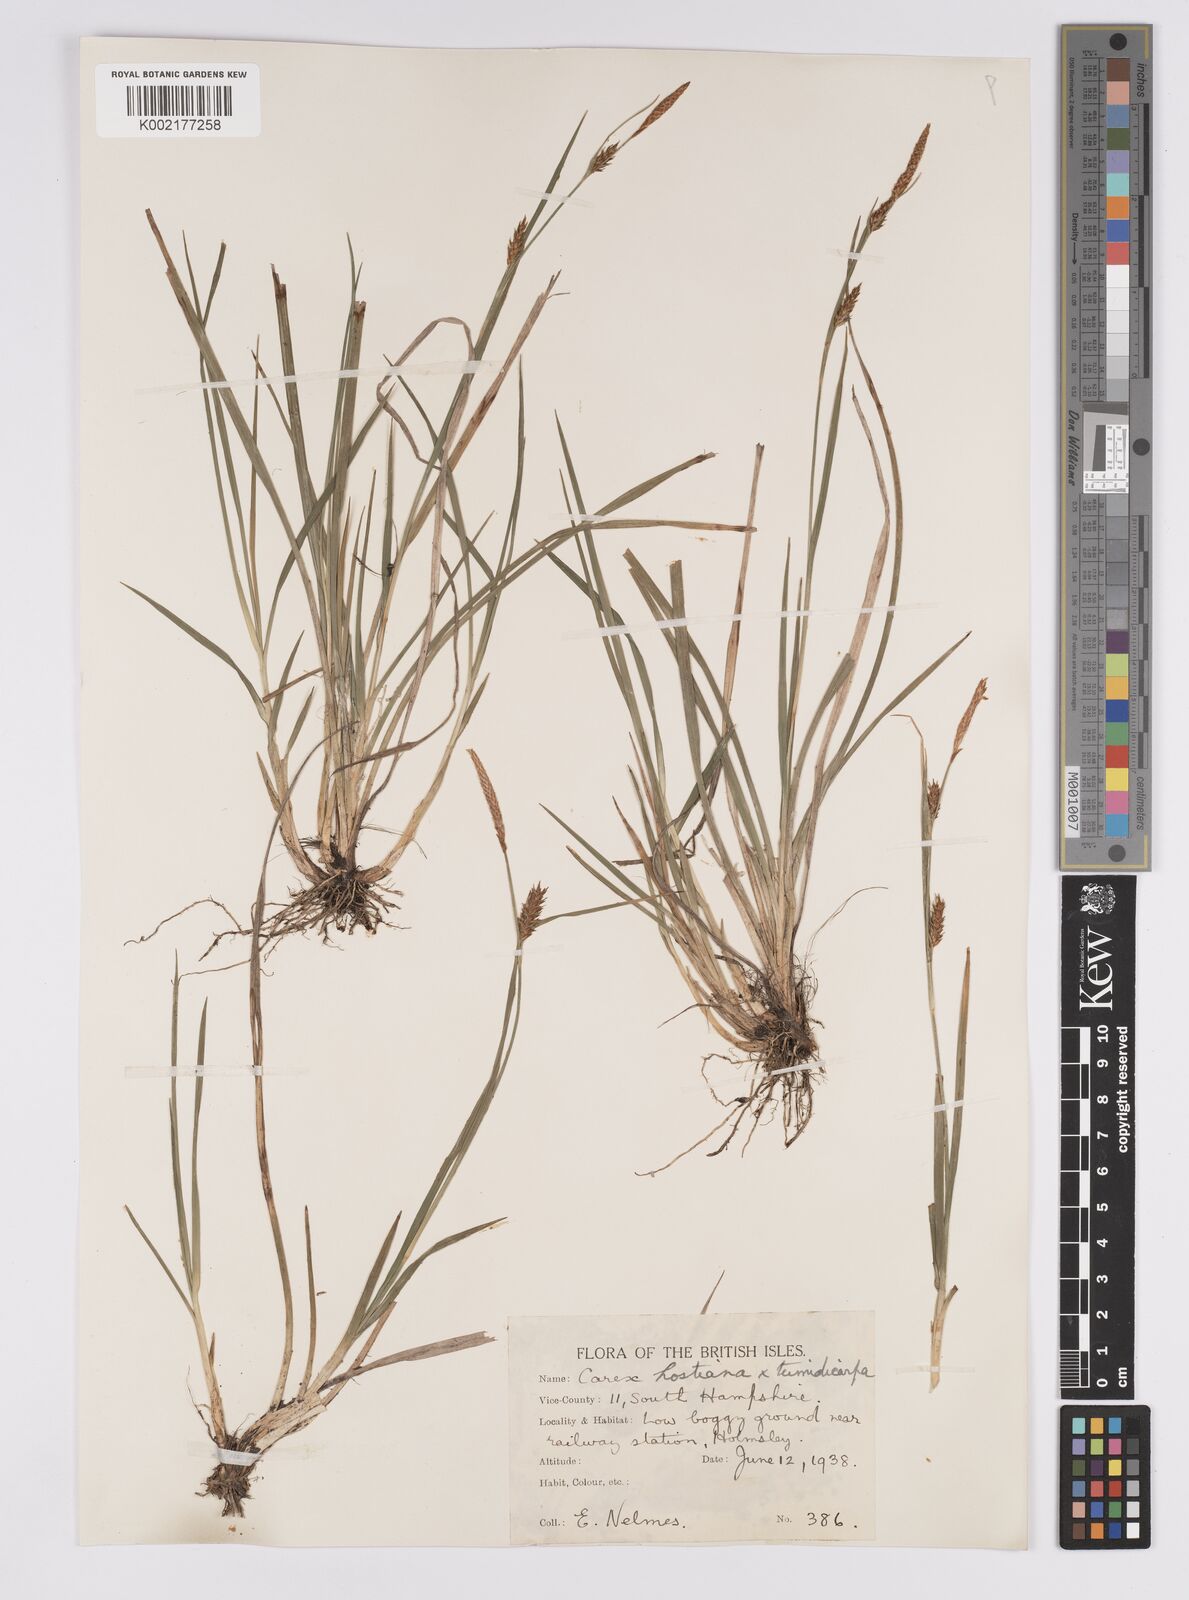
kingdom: Plantae
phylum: Tracheophyta
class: Liliopsida
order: Poales
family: Cyperaceae
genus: Carex
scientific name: Carex hostiana
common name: Tawny sedge
